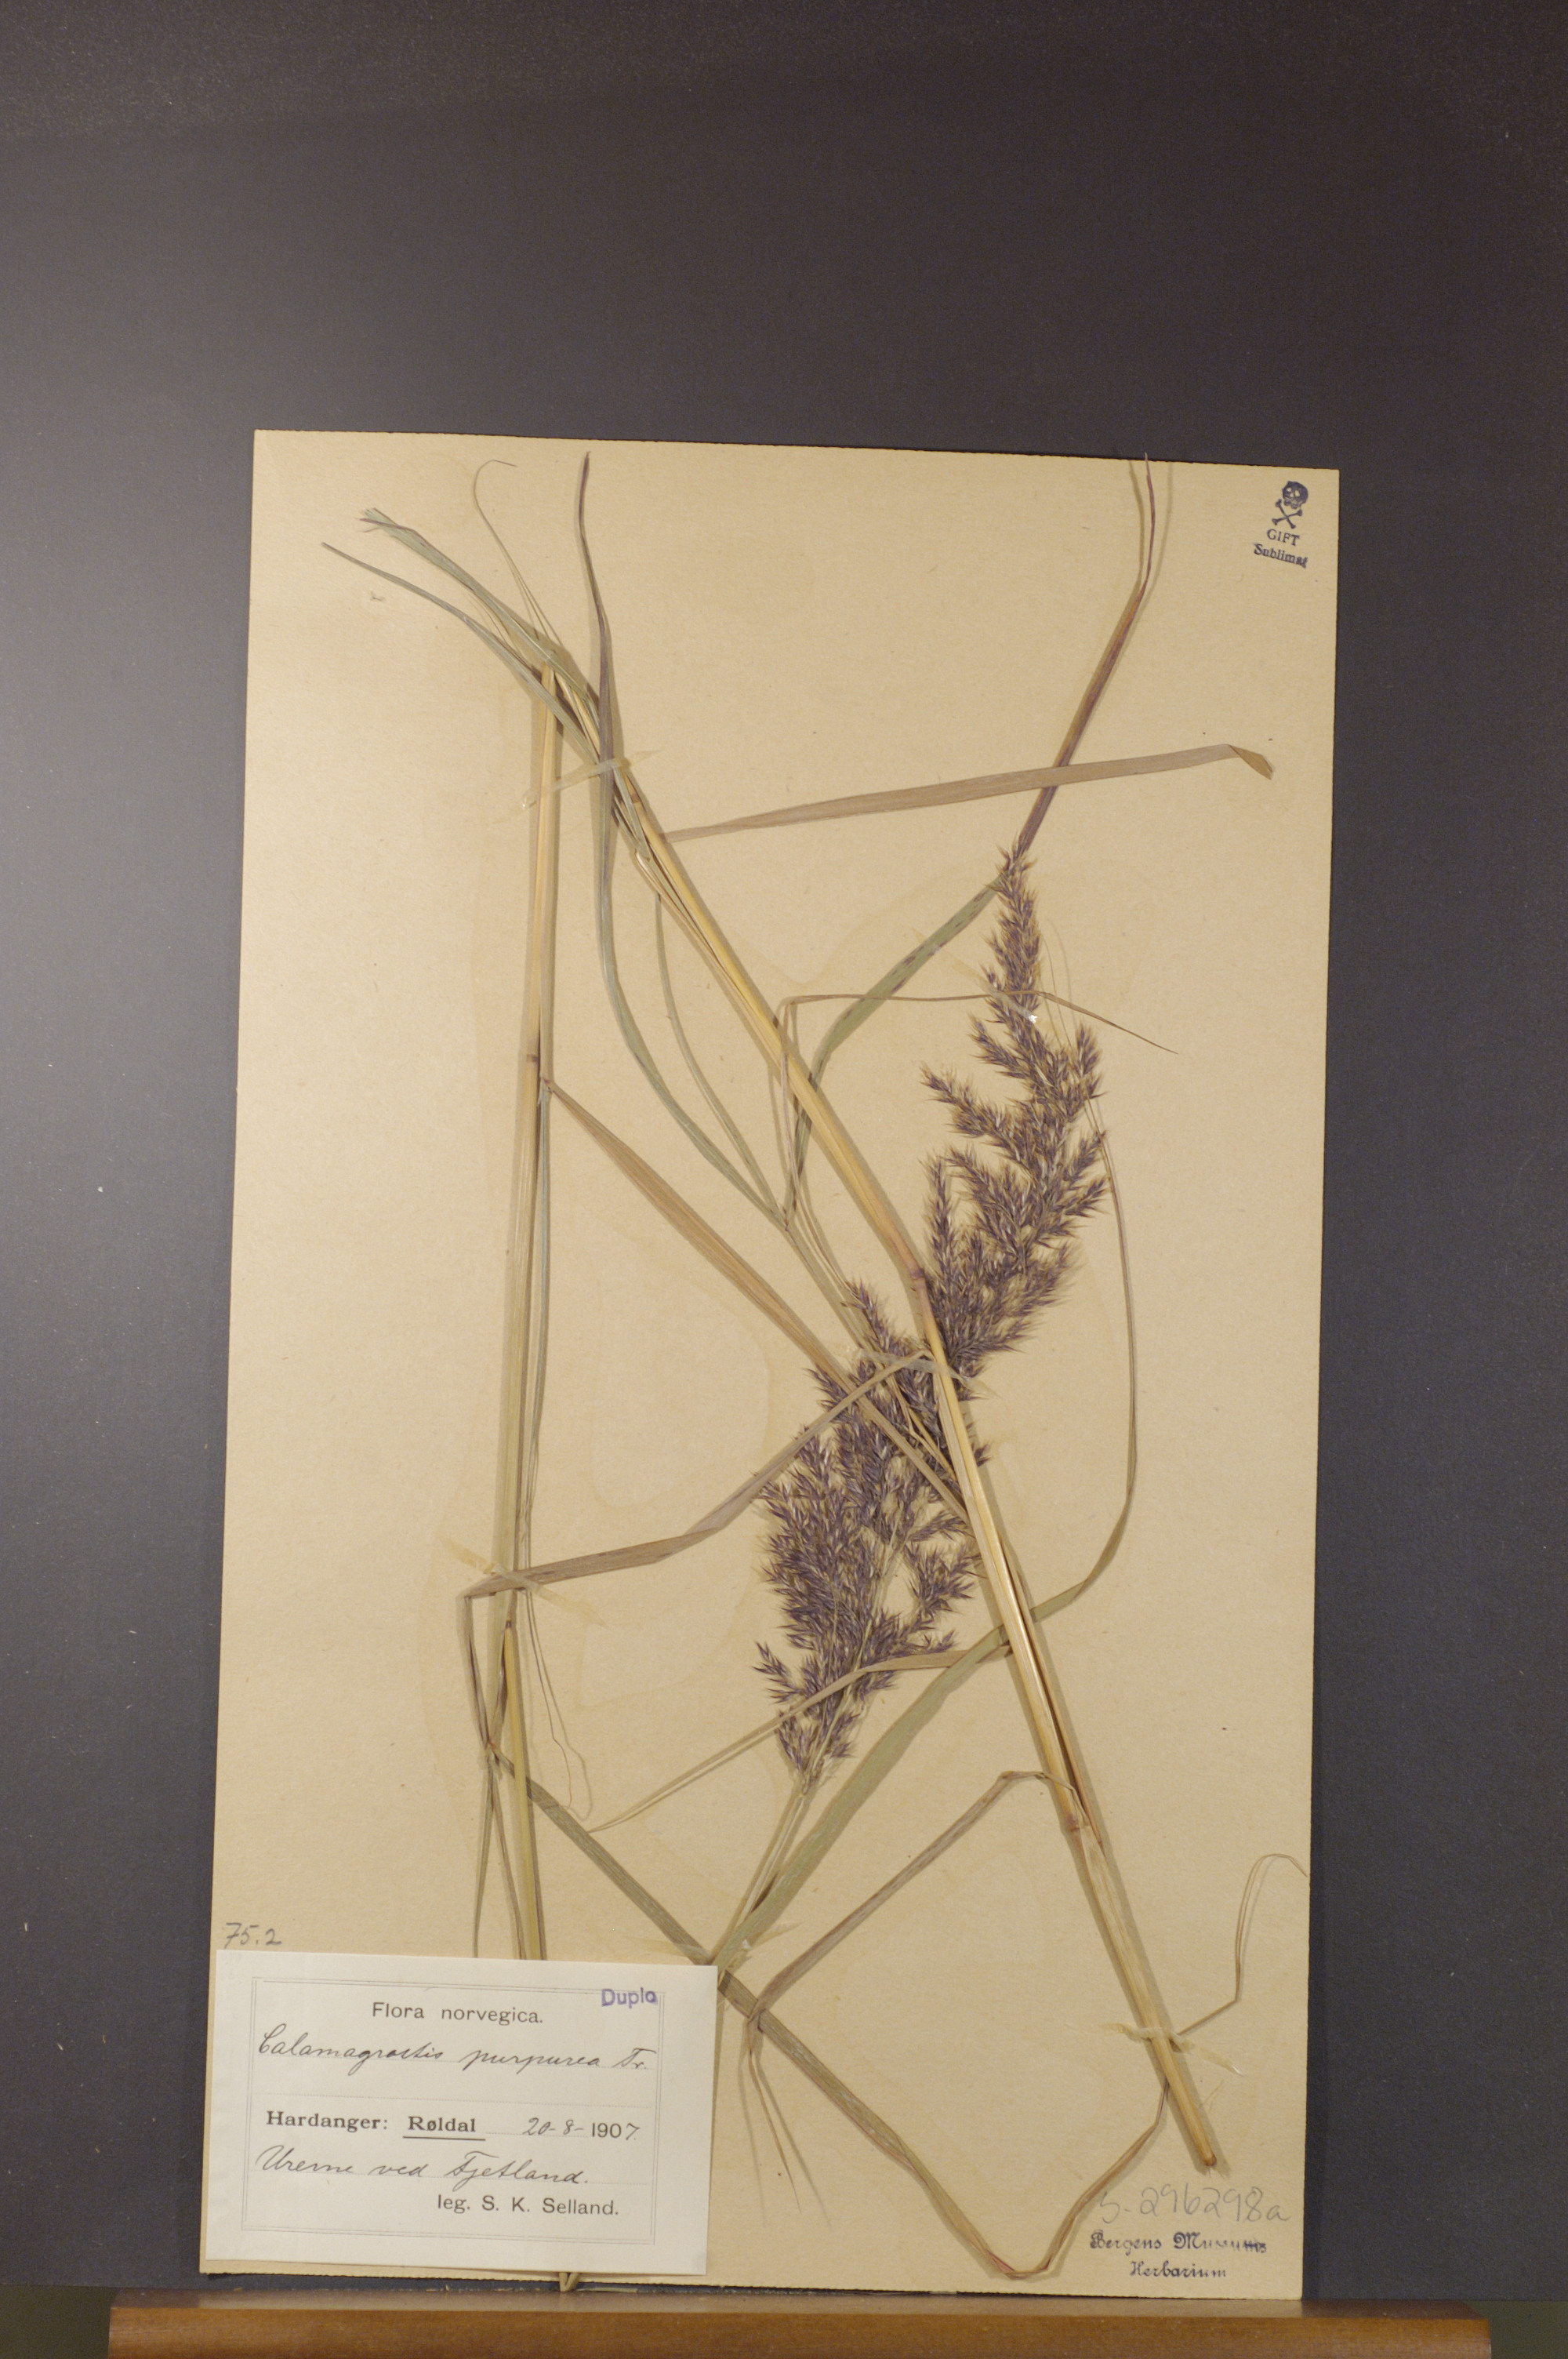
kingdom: Plantae
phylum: Tracheophyta
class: Liliopsida
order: Poales
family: Poaceae
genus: Calamagrostis
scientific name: Calamagrostis purpurea
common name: Scandinavian small-reed
